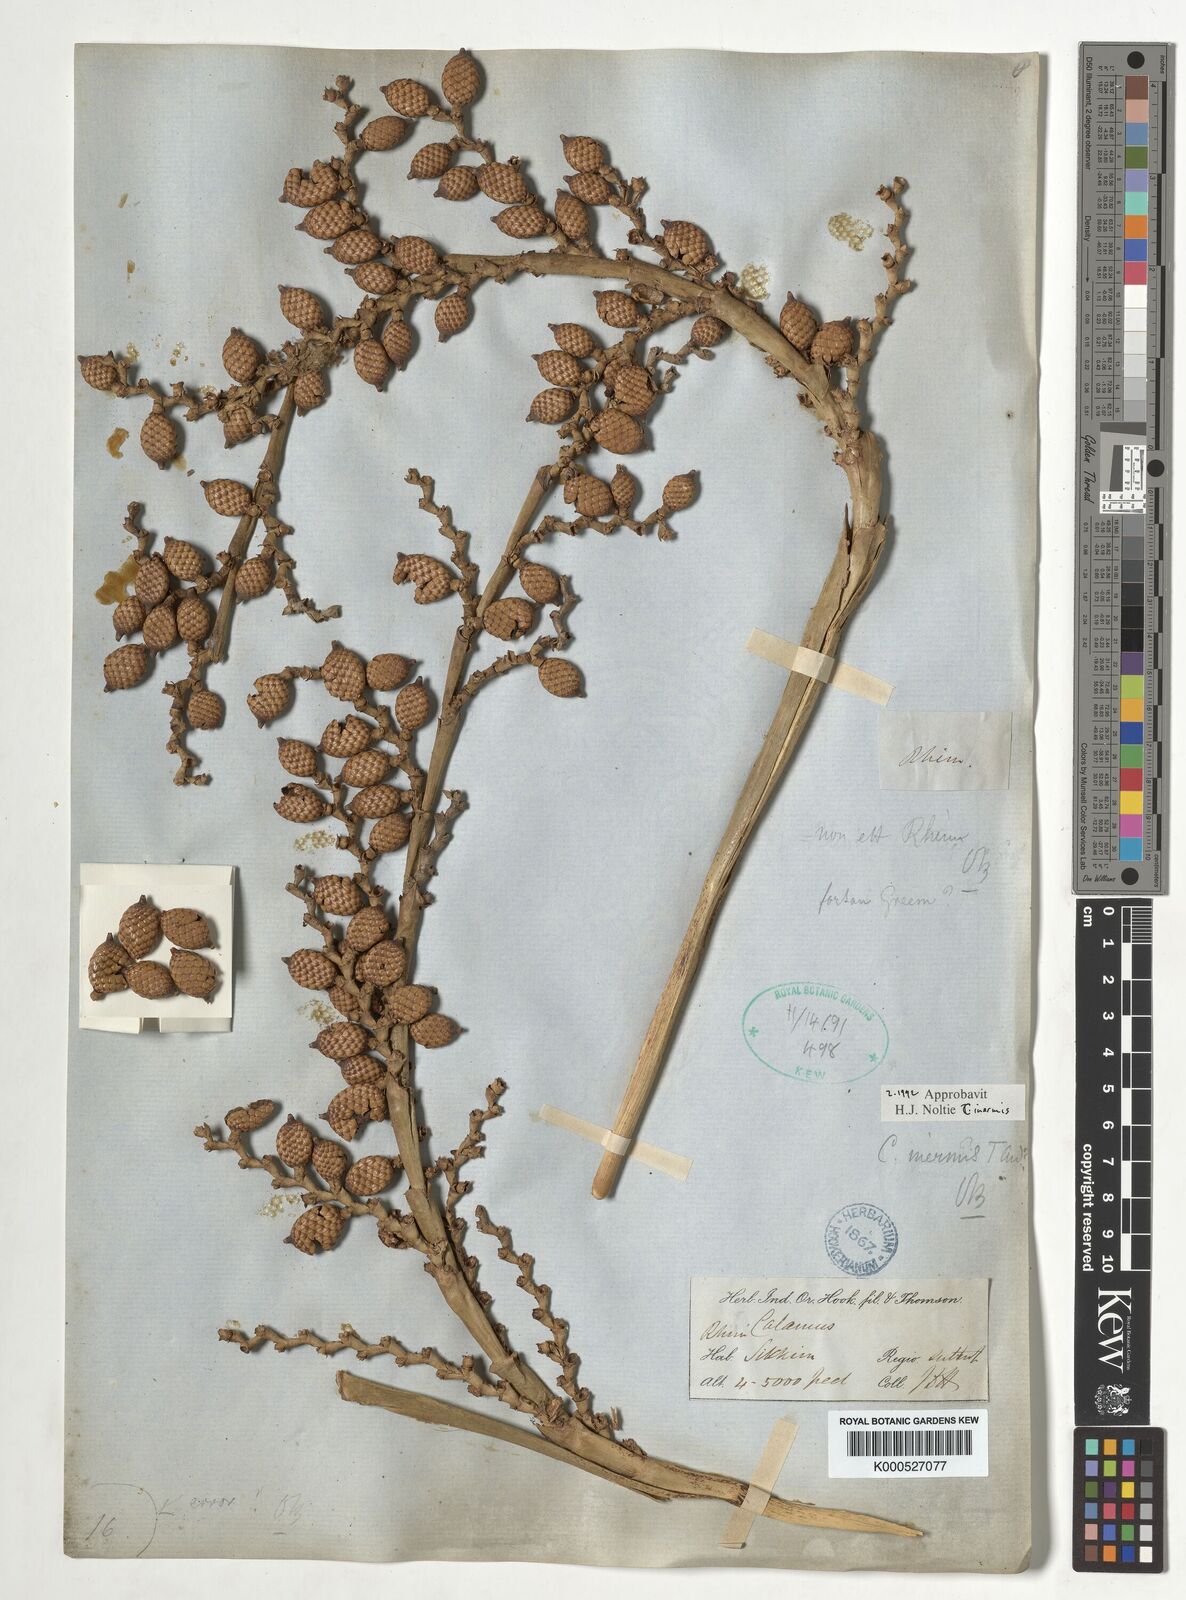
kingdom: Plantae
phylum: Tracheophyta
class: Liliopsida
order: Arecales
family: Arecaceae
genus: Calamus
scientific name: Calamus latifolius
